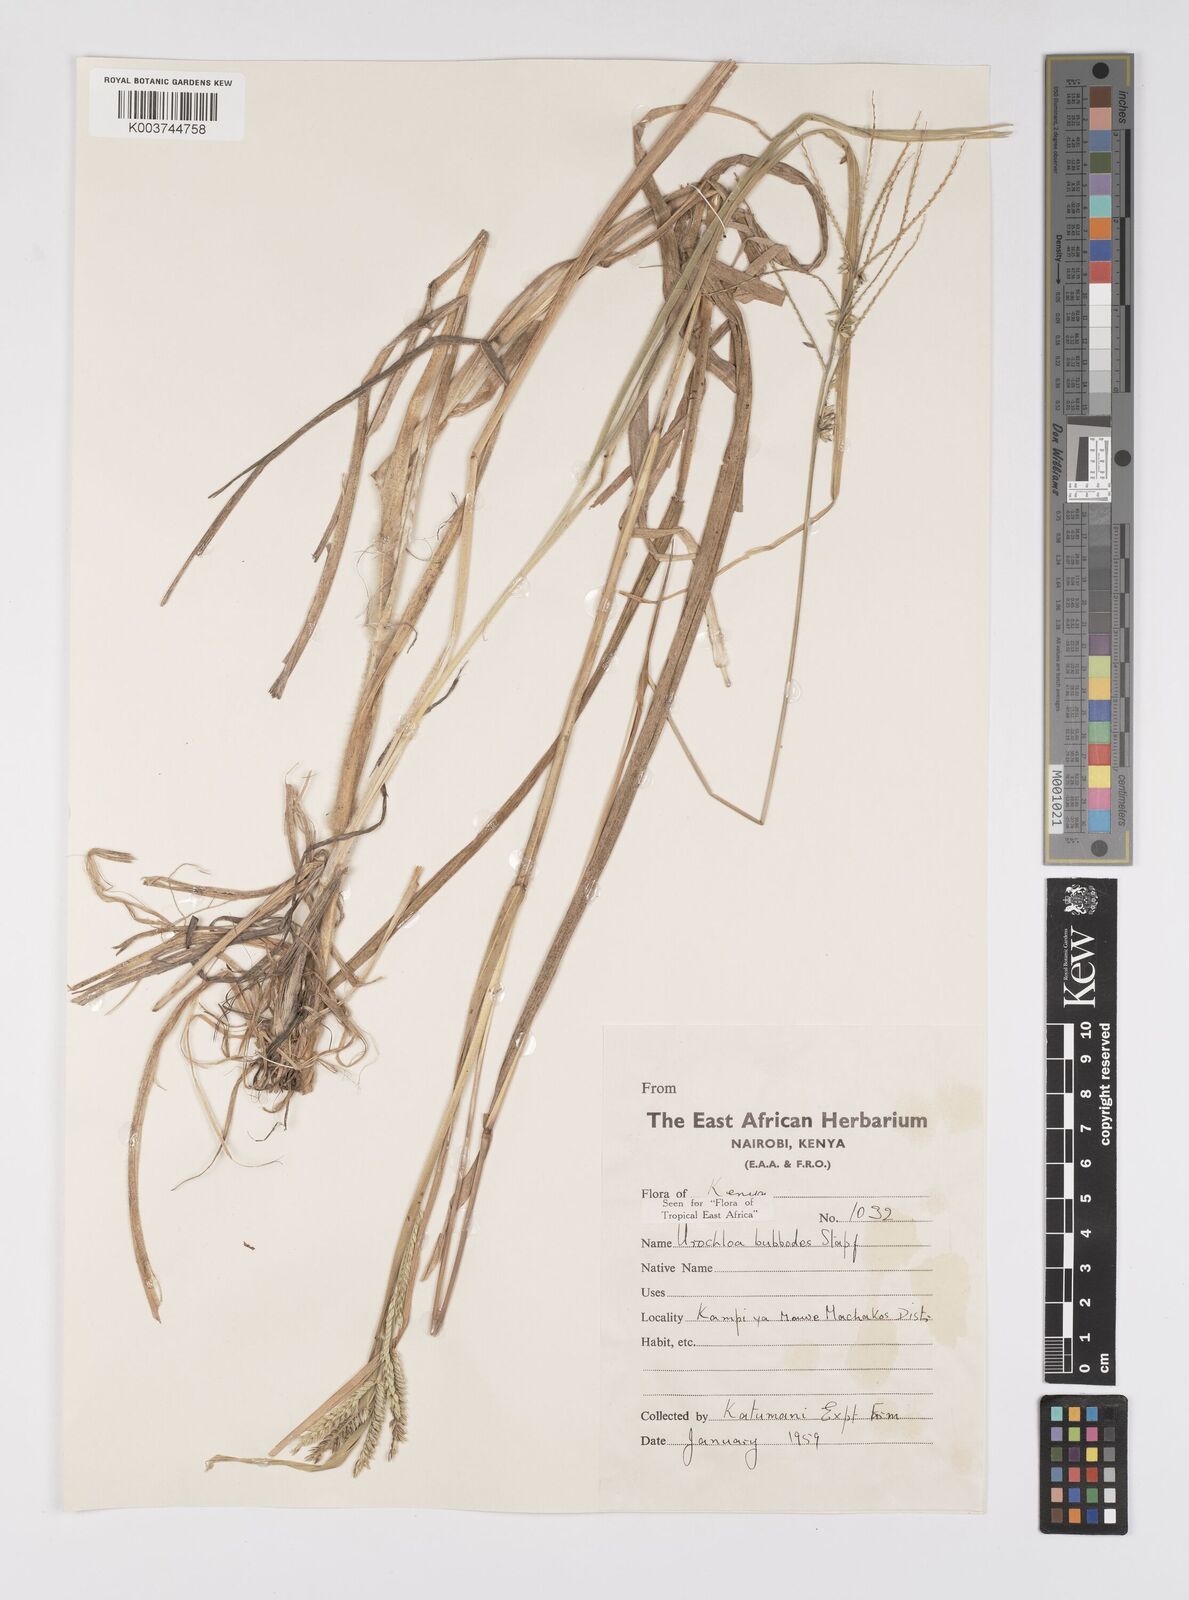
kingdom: Plantae
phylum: Tracheophyta
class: Liliopsida
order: Poales
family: Poaceae
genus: Urochloa
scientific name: Urochloa oligotricha
